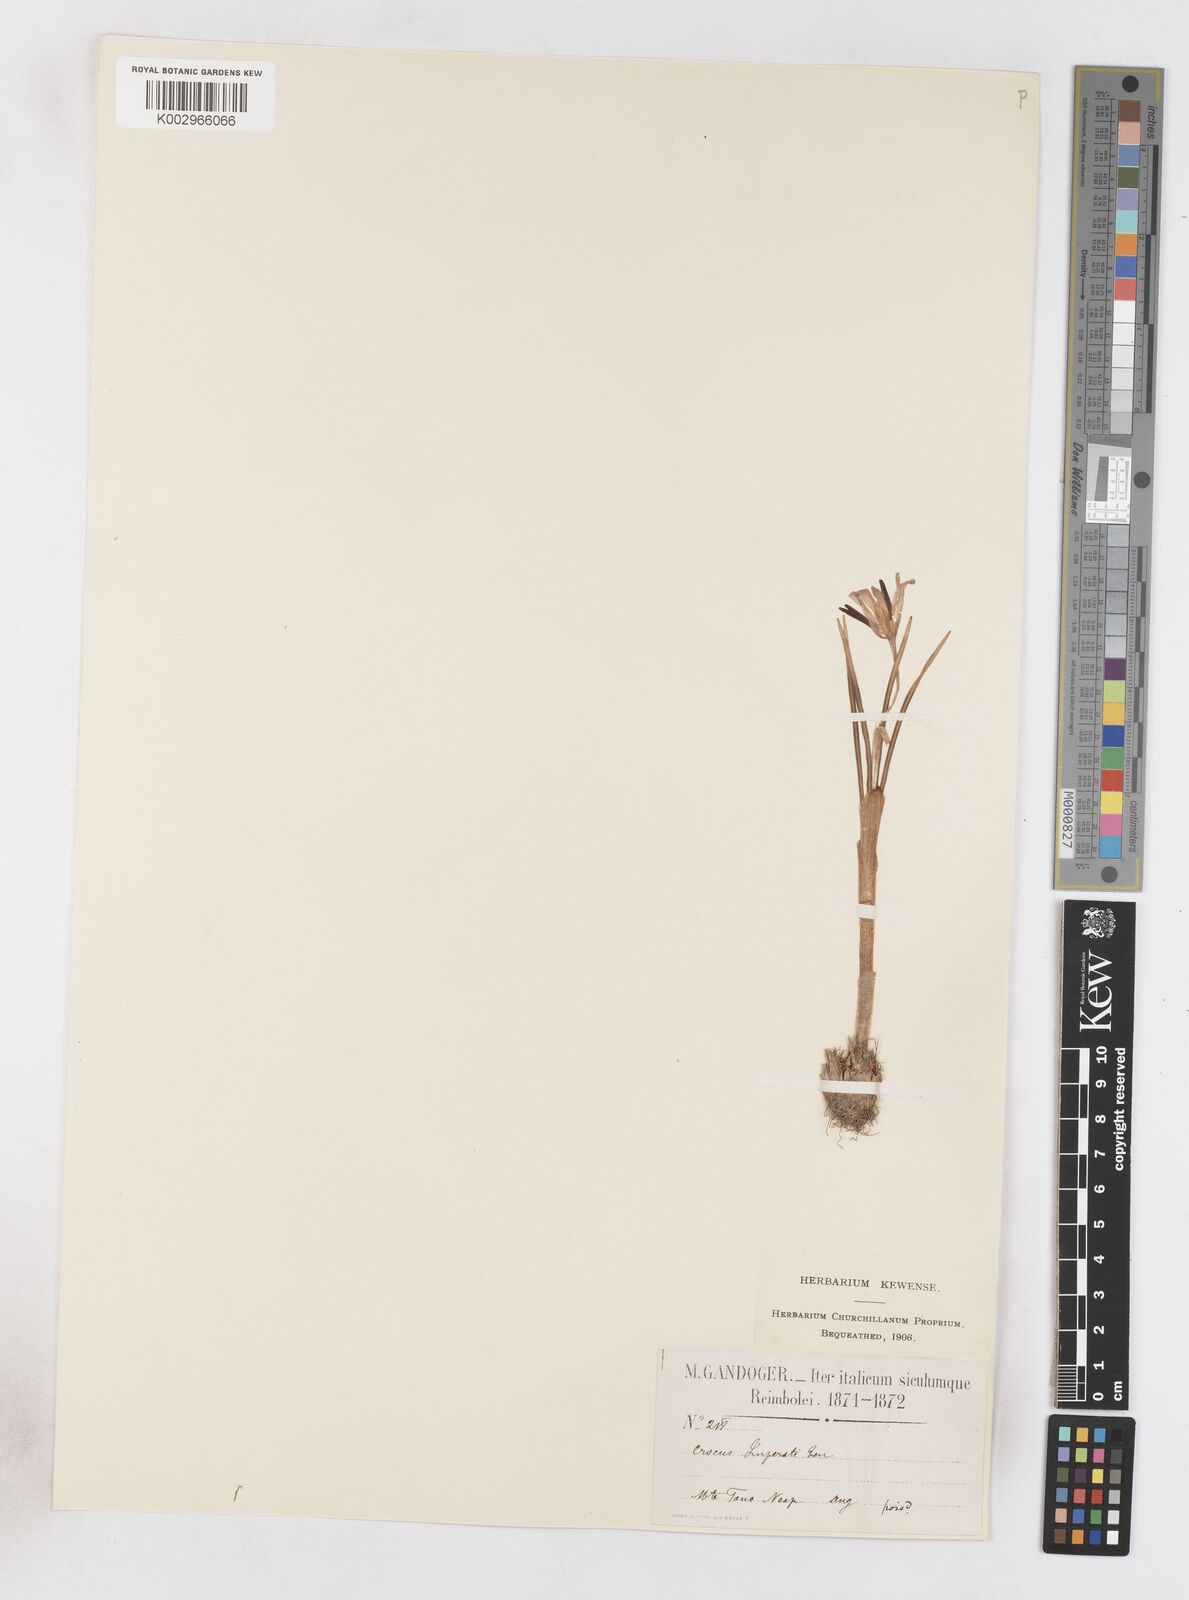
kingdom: Plantae
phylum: Tracheophyta
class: Liliopsida
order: Asparagales
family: Iridaceae
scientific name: Iridaceae
